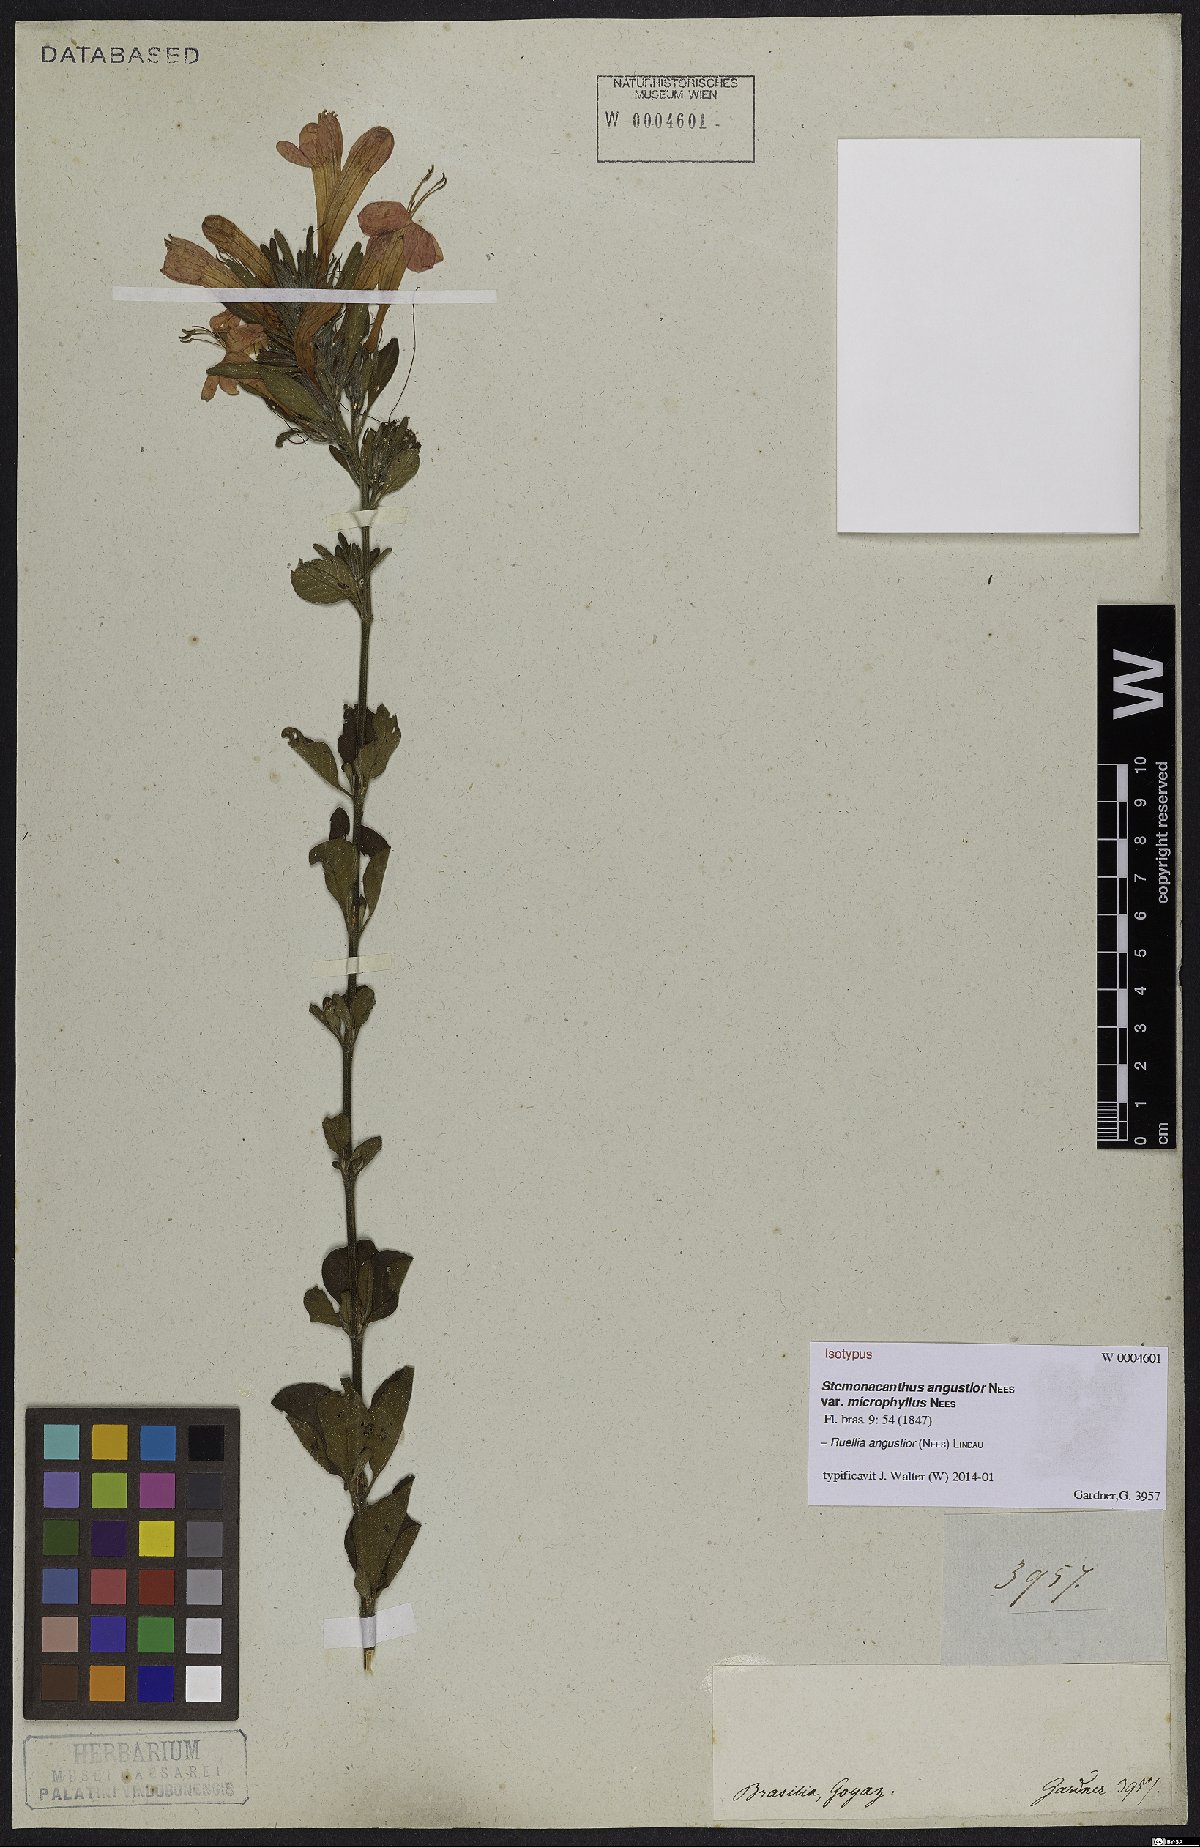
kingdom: Plantae
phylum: Tracheophyta
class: Magnoliopsida
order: Lamiales
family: Acanthaceae
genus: Ruellia
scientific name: Ruellia angustior
